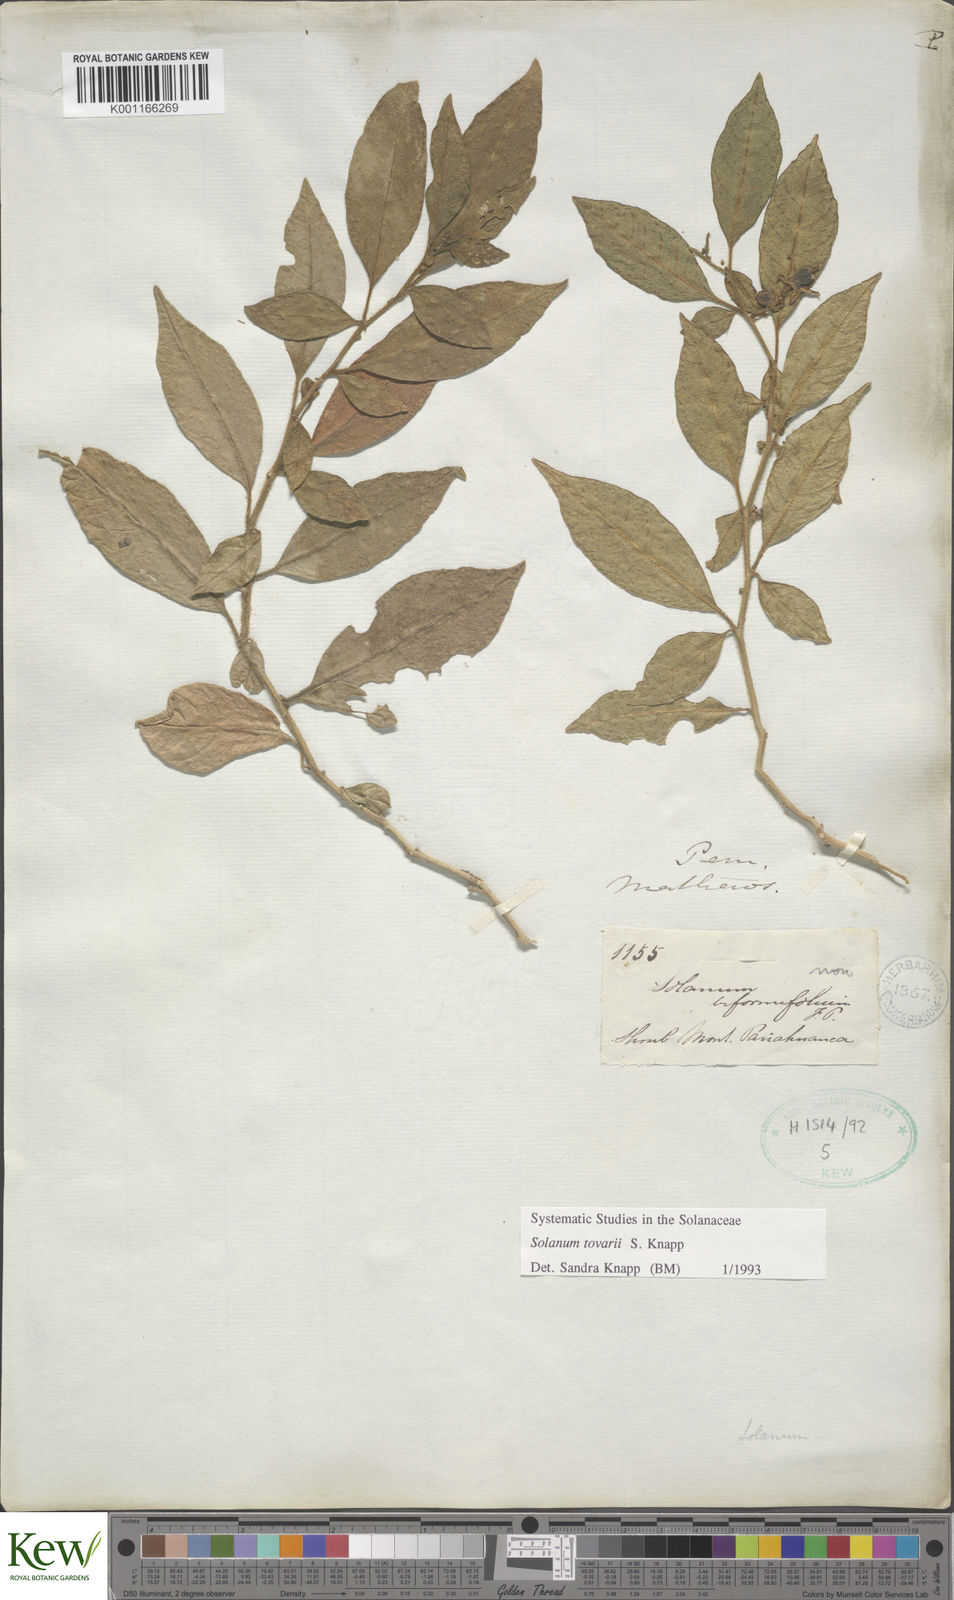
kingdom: Plantae
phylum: Tracheophyta
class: Magnoliopsida
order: Solanales
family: Solanaceae
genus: Solanum
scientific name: Solanum tovarii
